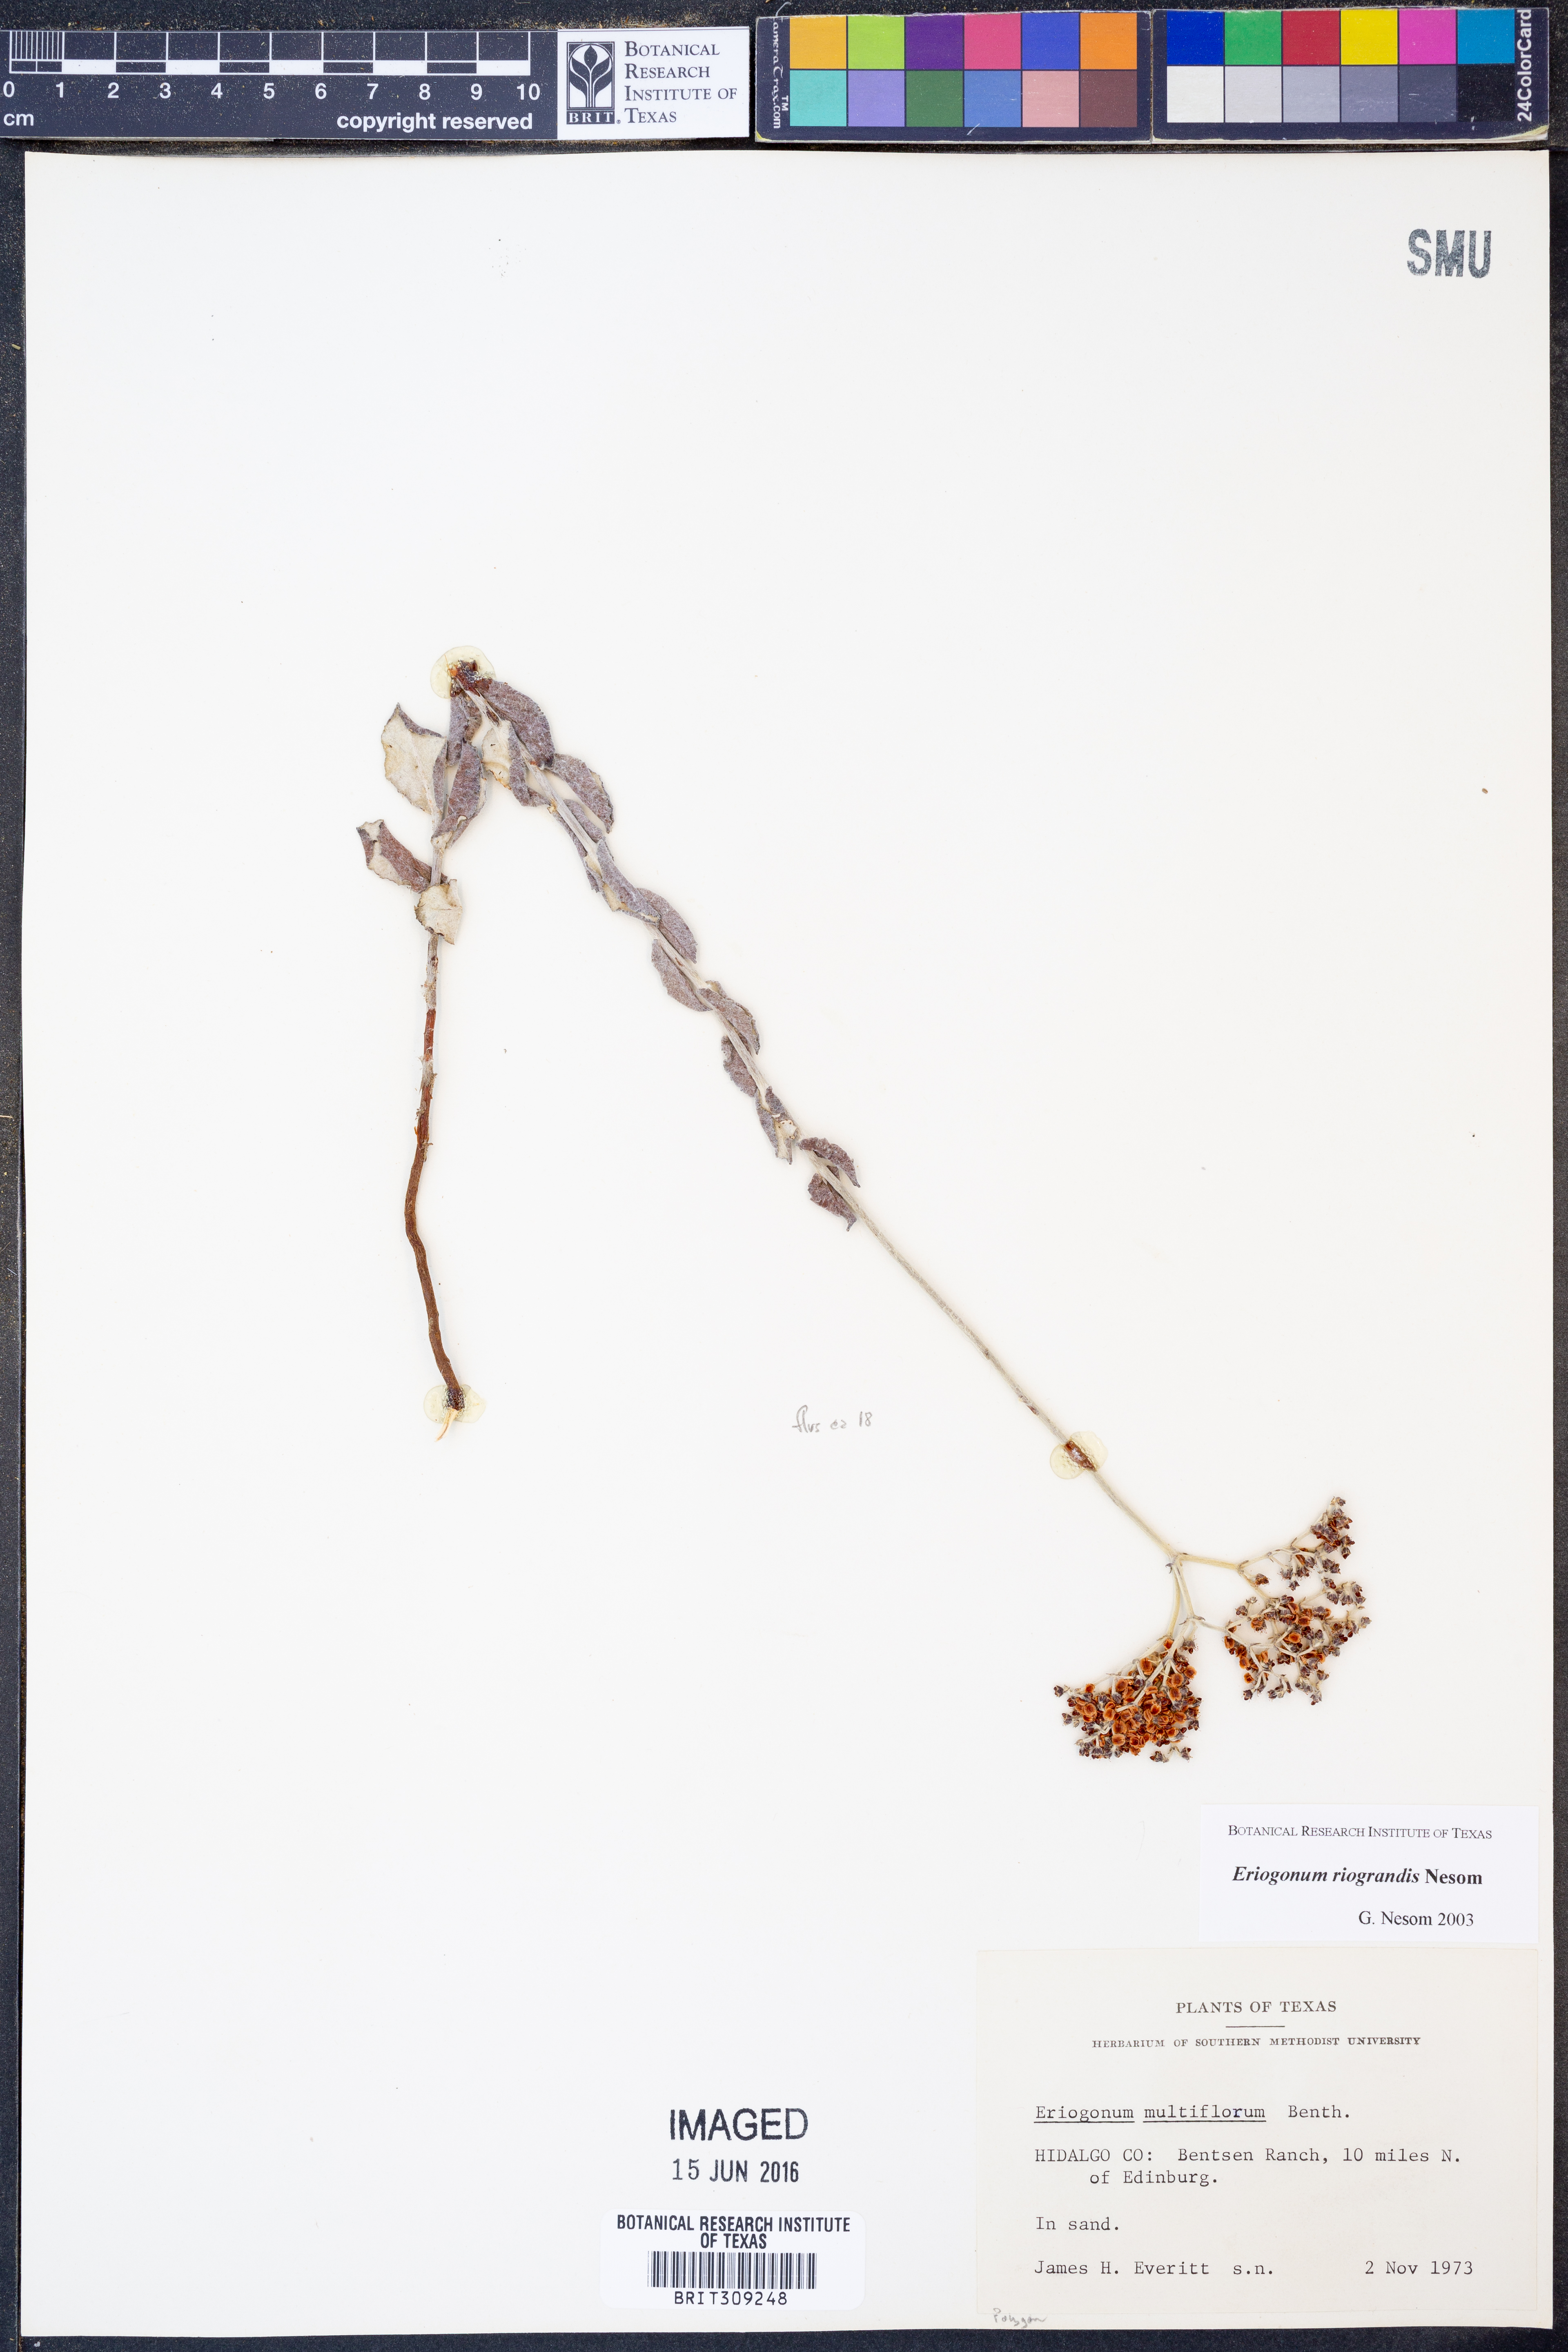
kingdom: Plantae
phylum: Tracheophyta
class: Magnoliopsida
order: Caryophyllales
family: Polygonaceae
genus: Eriogonum
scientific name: Eriogonum multiflorum
